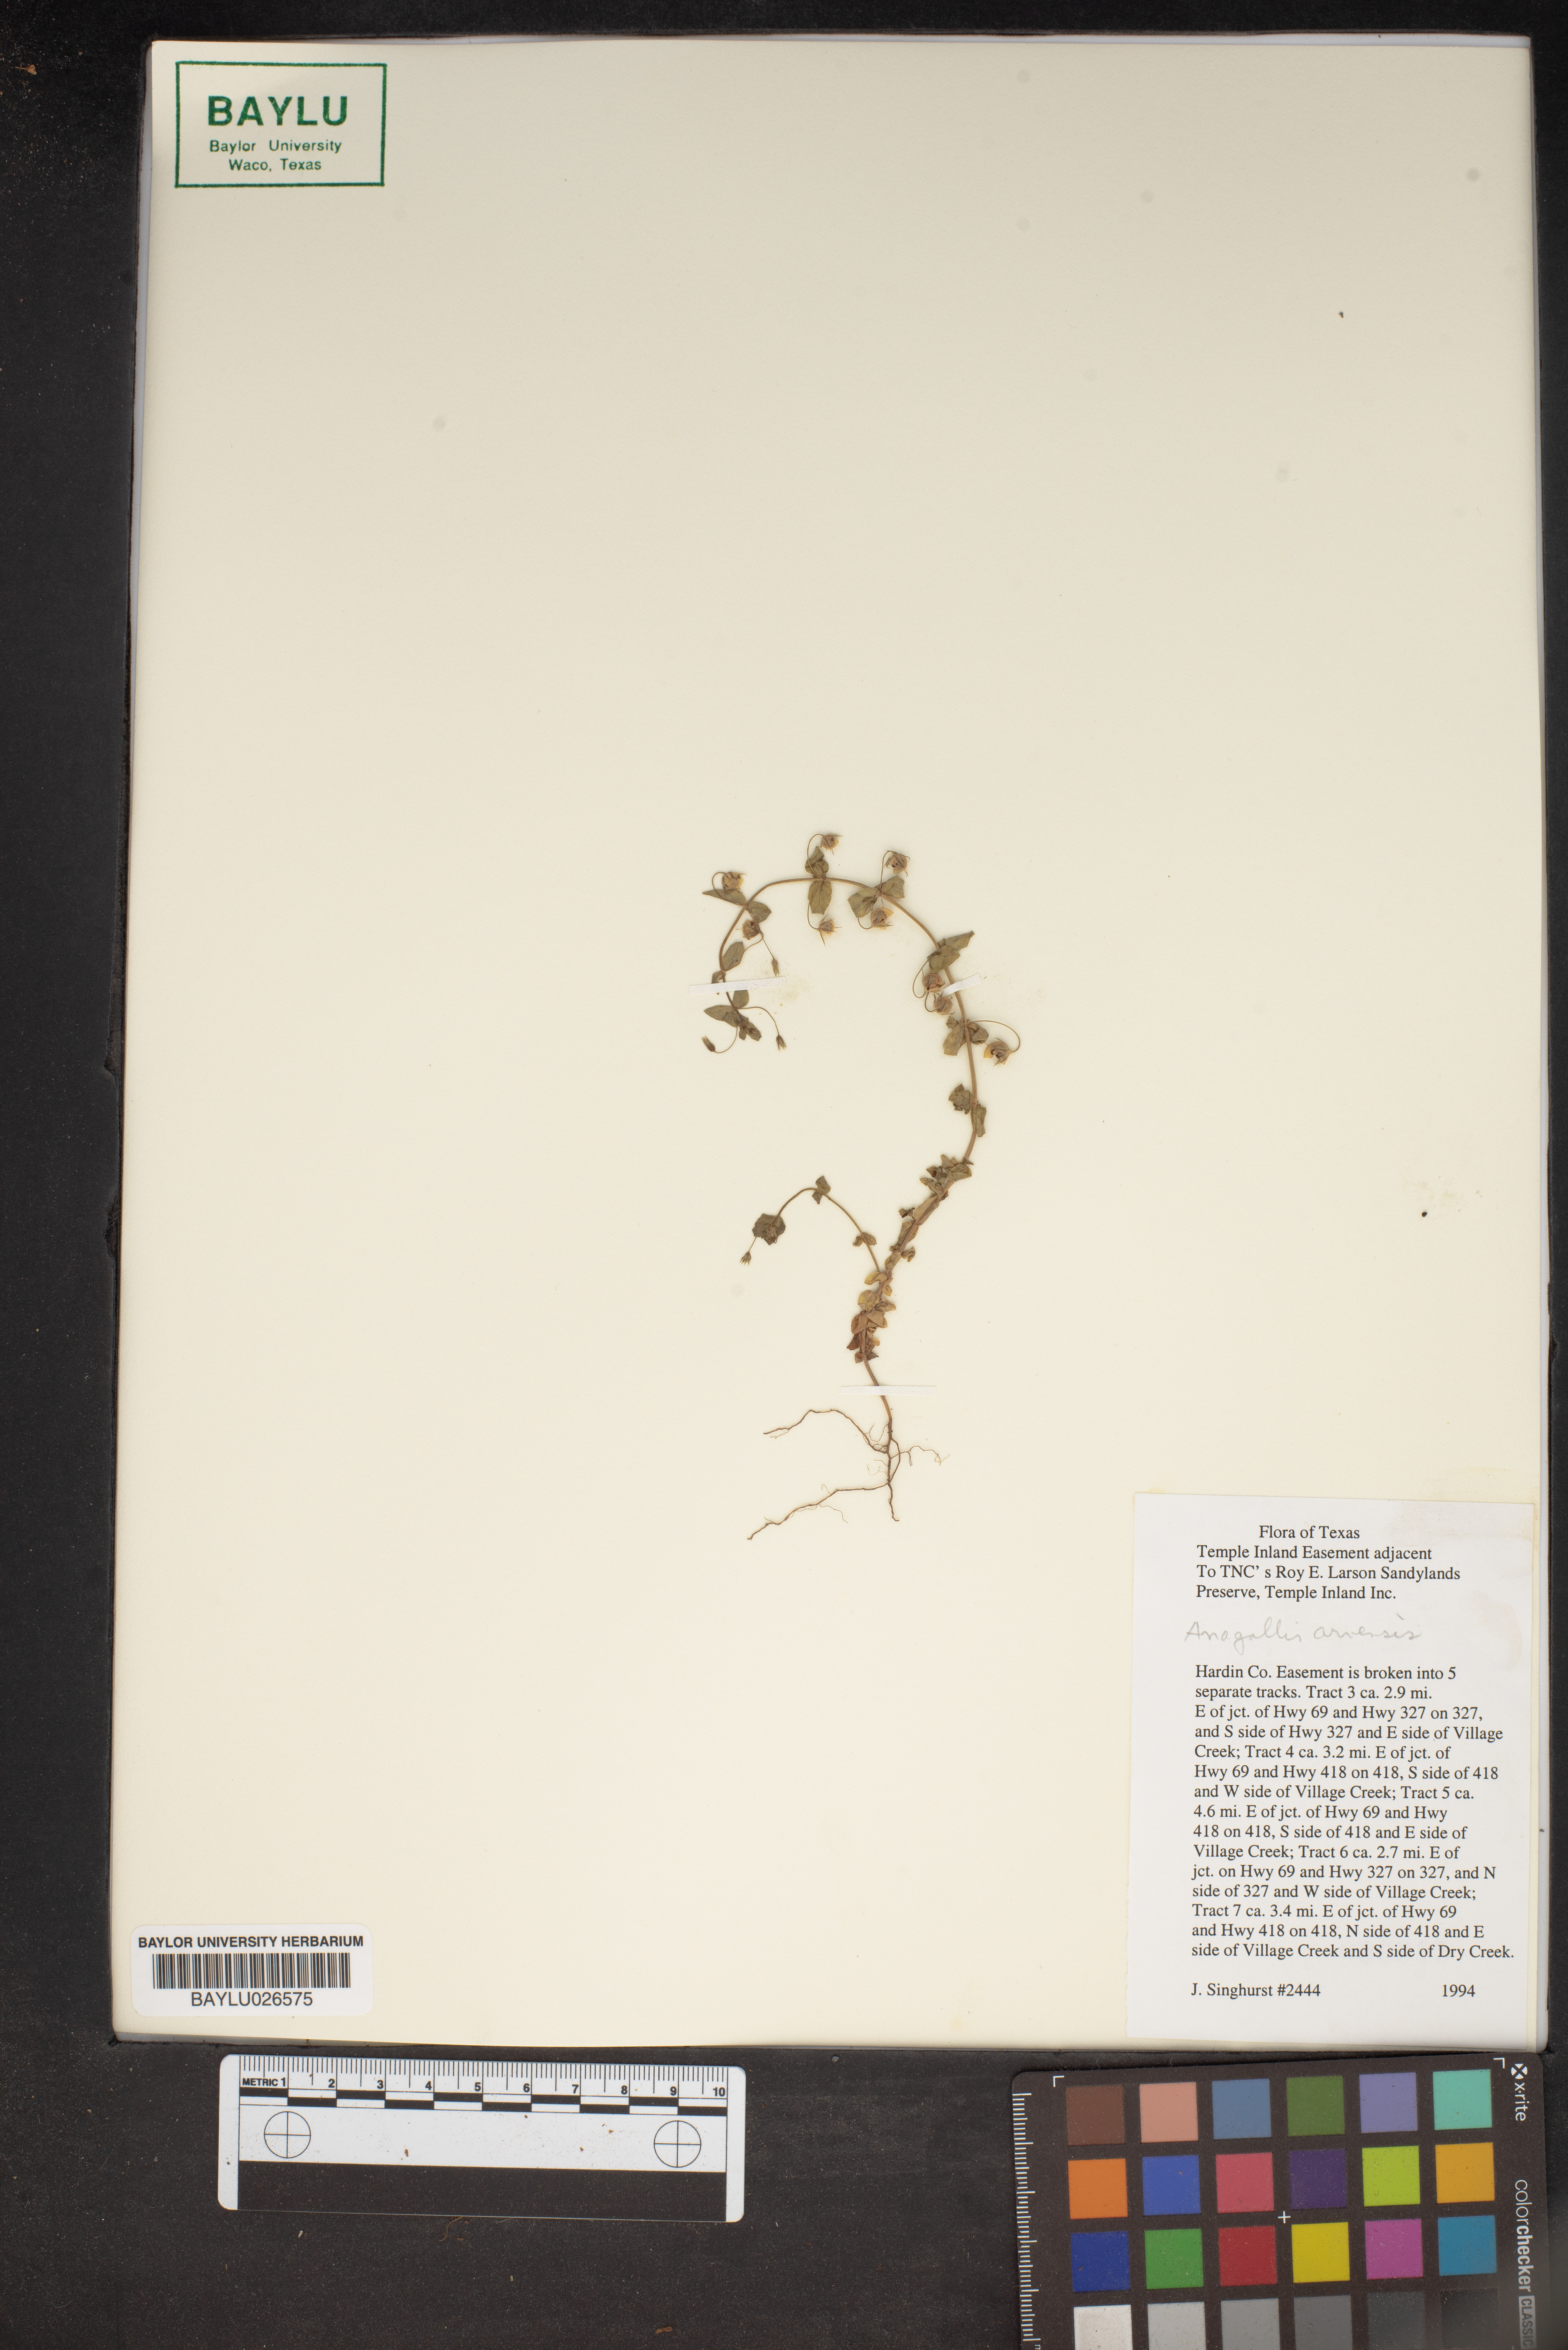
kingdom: Plantae
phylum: Tracheophyta
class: Magnoliopsida
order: Ericales
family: Primulaceae
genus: Lysimachia
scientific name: Lysimachia arvensis
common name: Scarlet pimpernel
